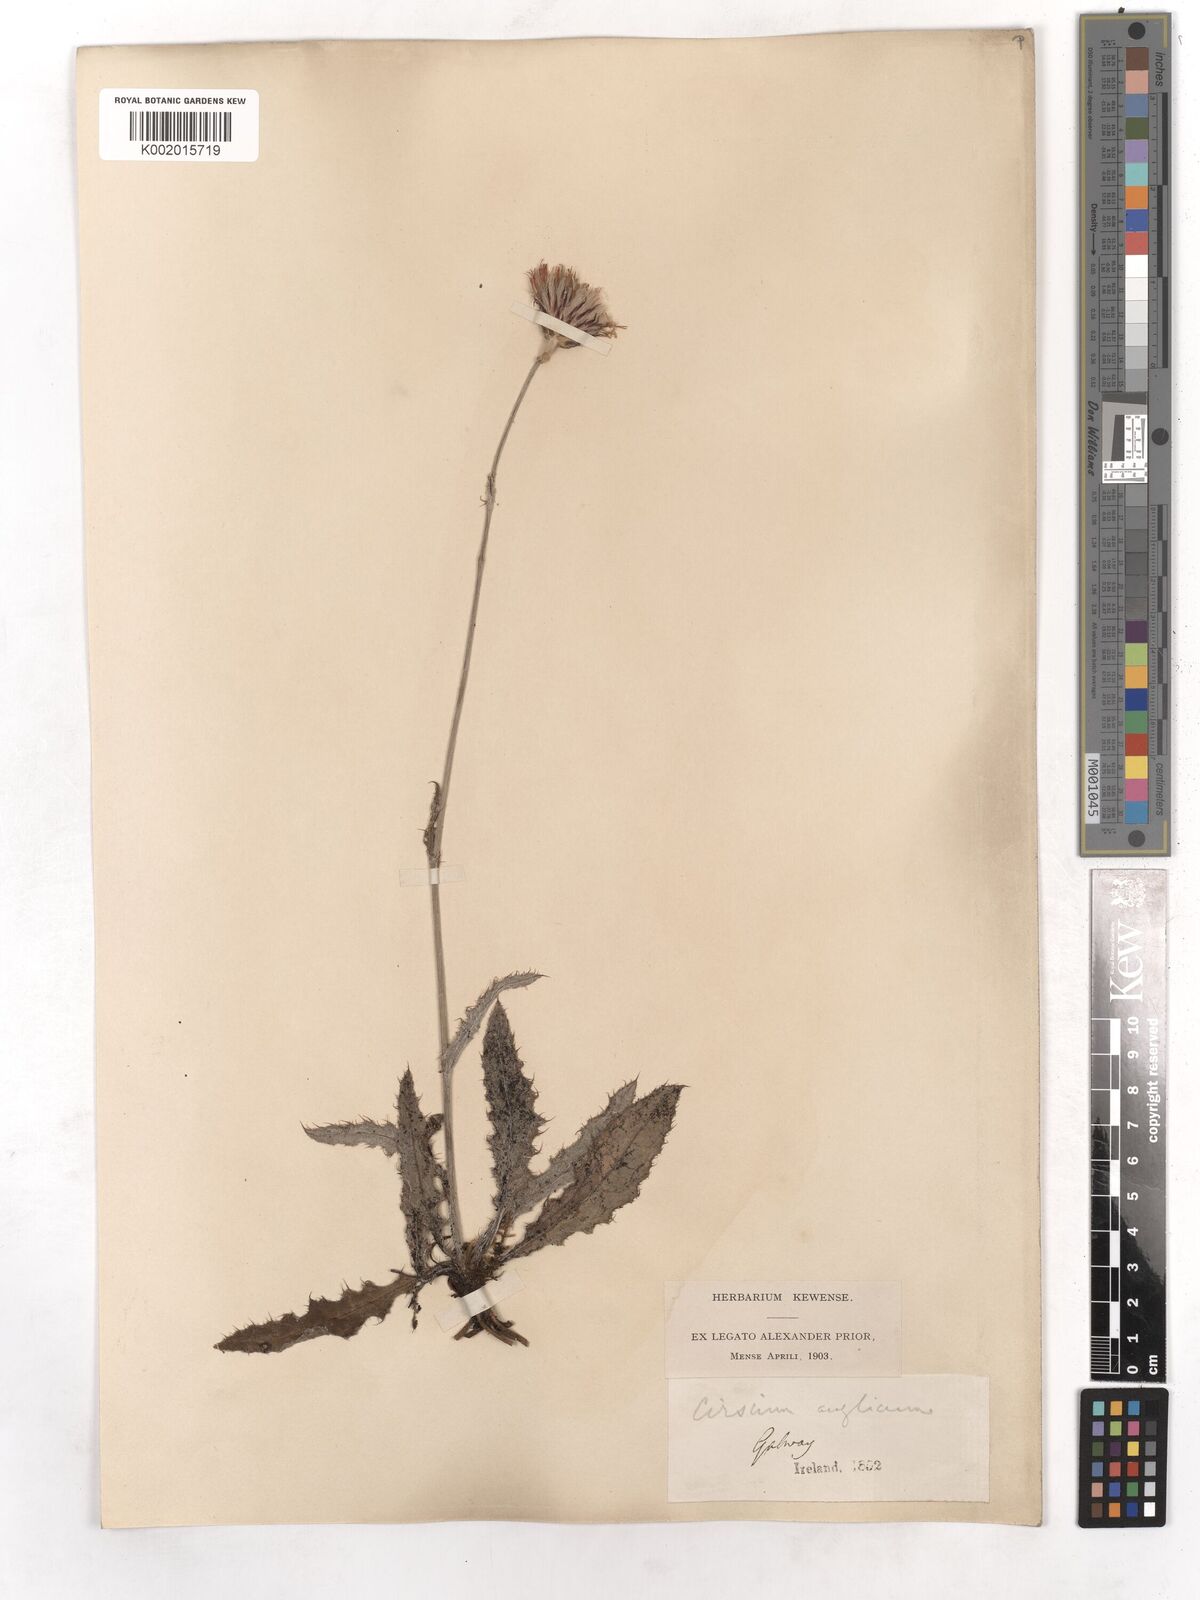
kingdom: Plantae
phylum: Tracheophyta
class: Magnoliopsida
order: Asterales
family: Asteraceae
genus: Cirsium
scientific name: Cirsium dissectum
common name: Meadow thistle
